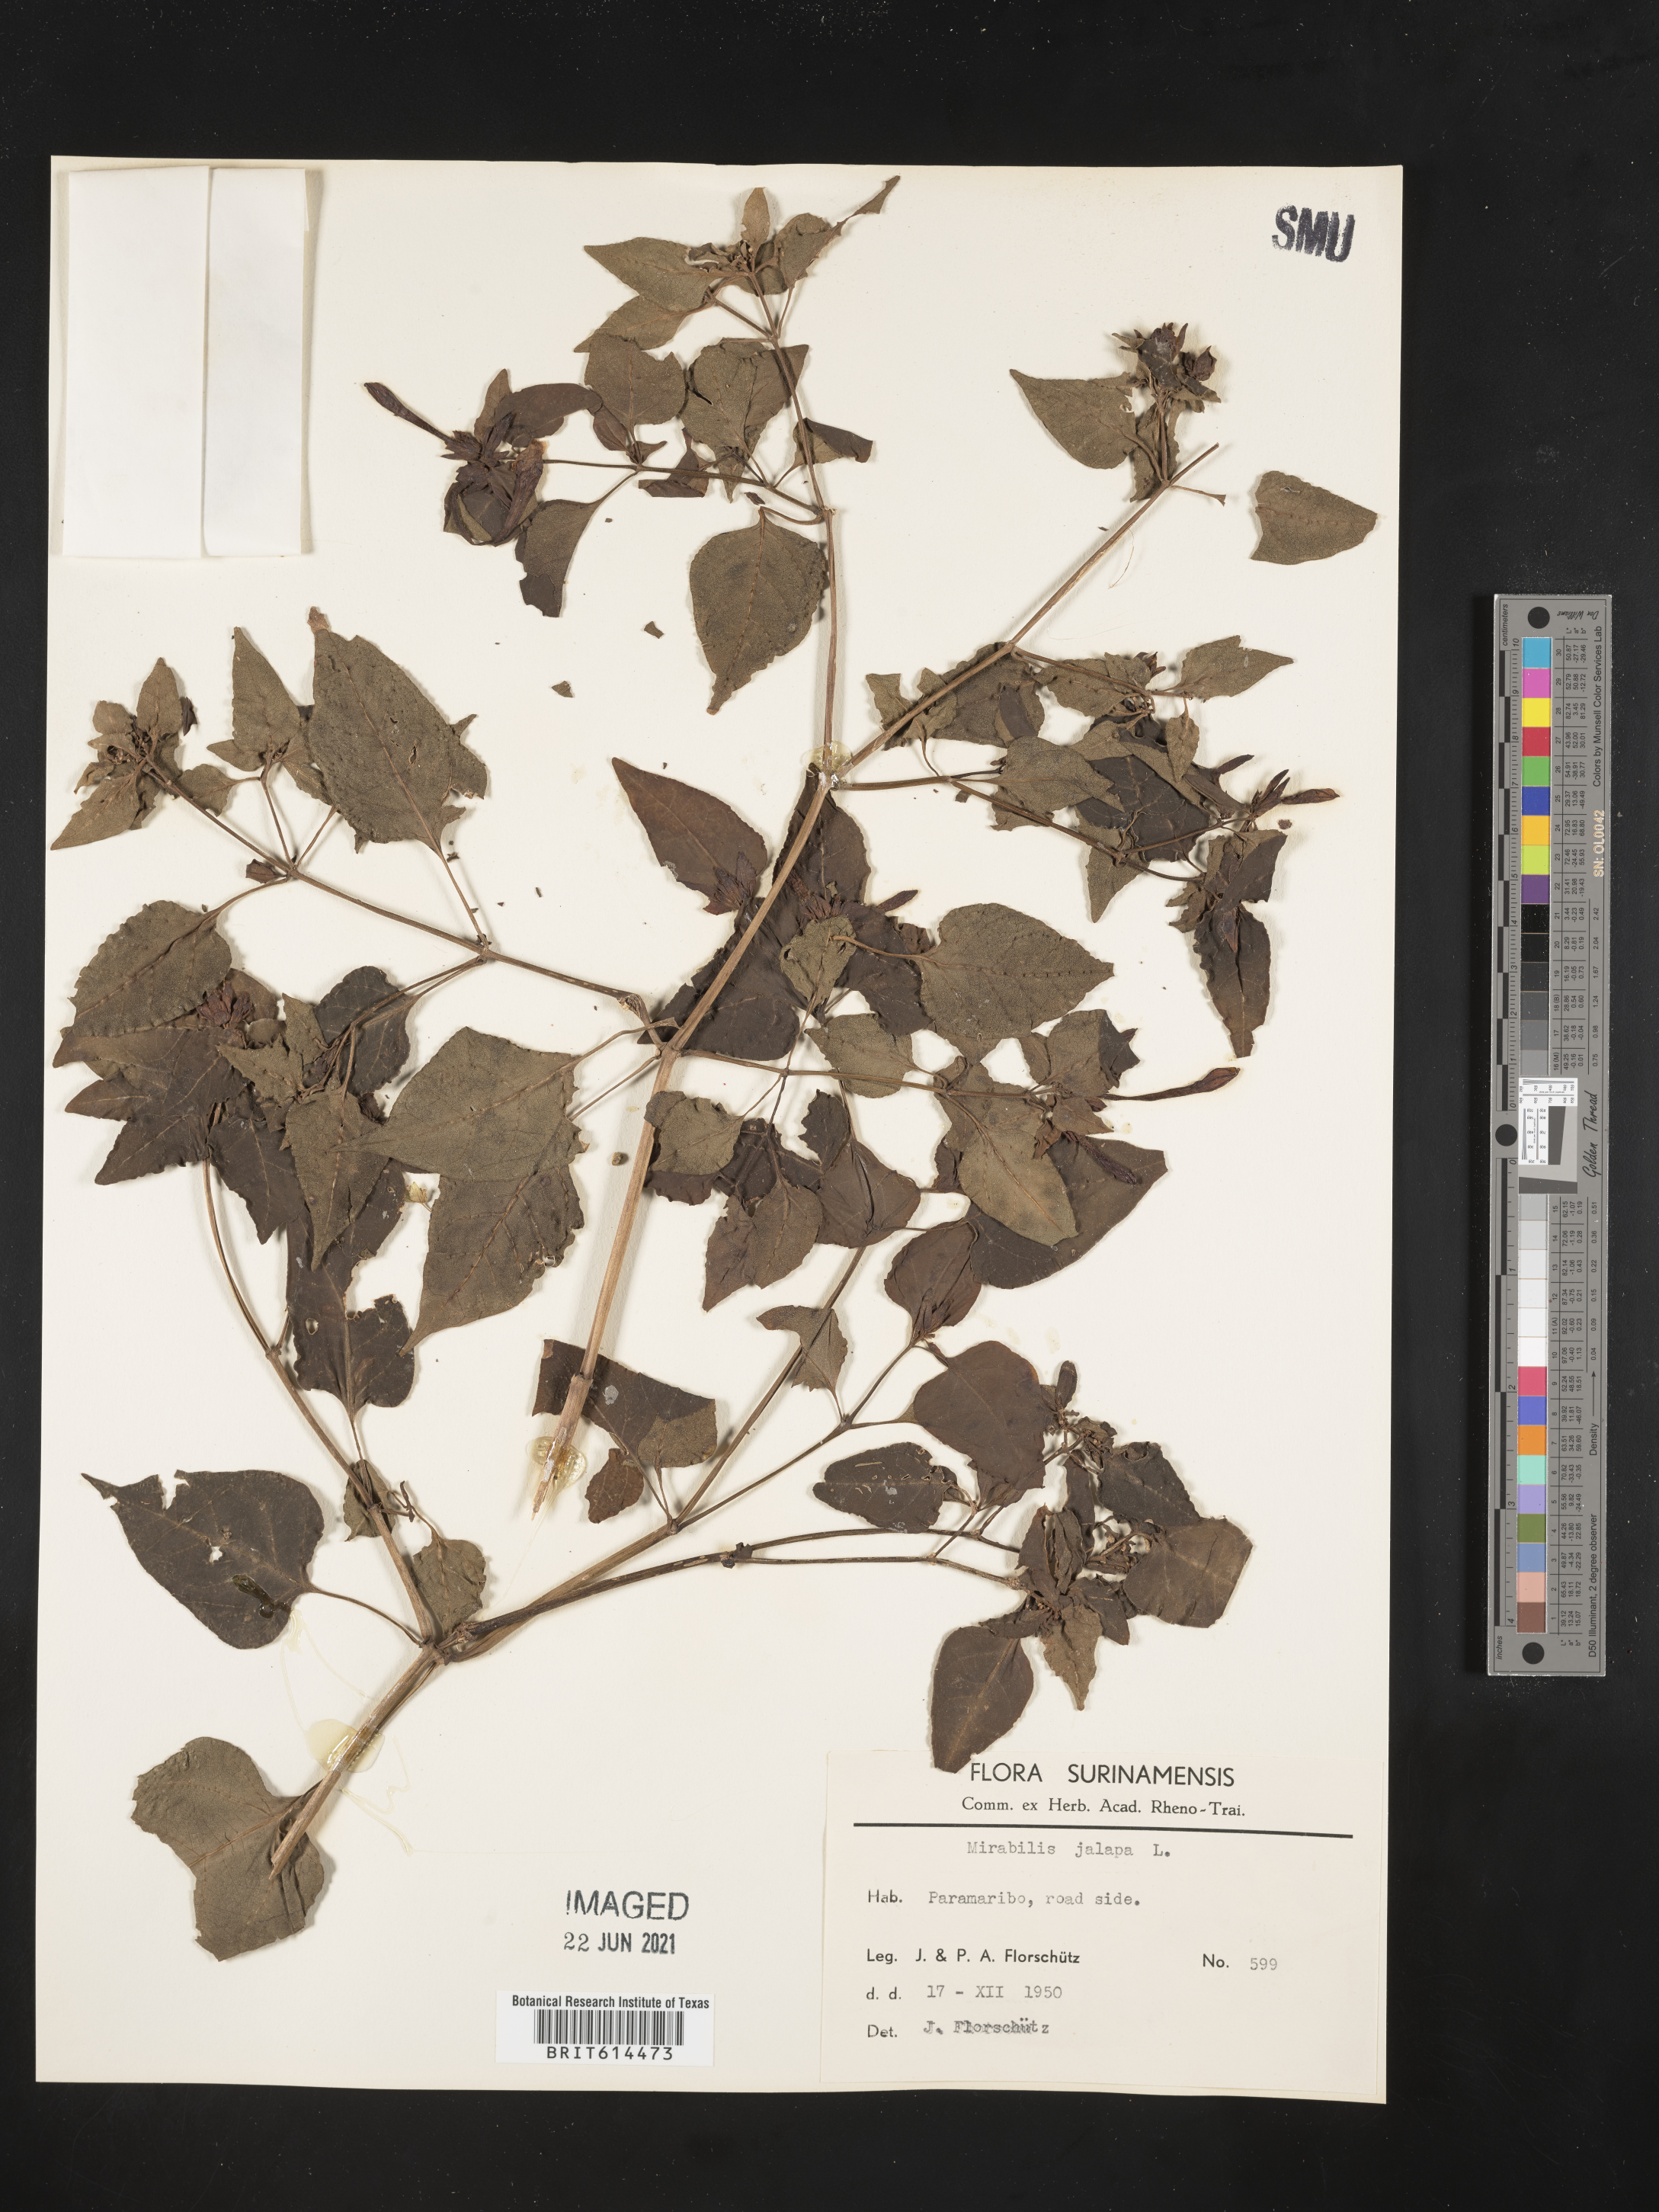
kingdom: Plantae
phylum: Tracheophyta
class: Magnoliopsida
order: Caryophyllales
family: Nyctaginaceae
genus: Mirabilis
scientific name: Mirabilis jalapa
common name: Marvel-of-peru
